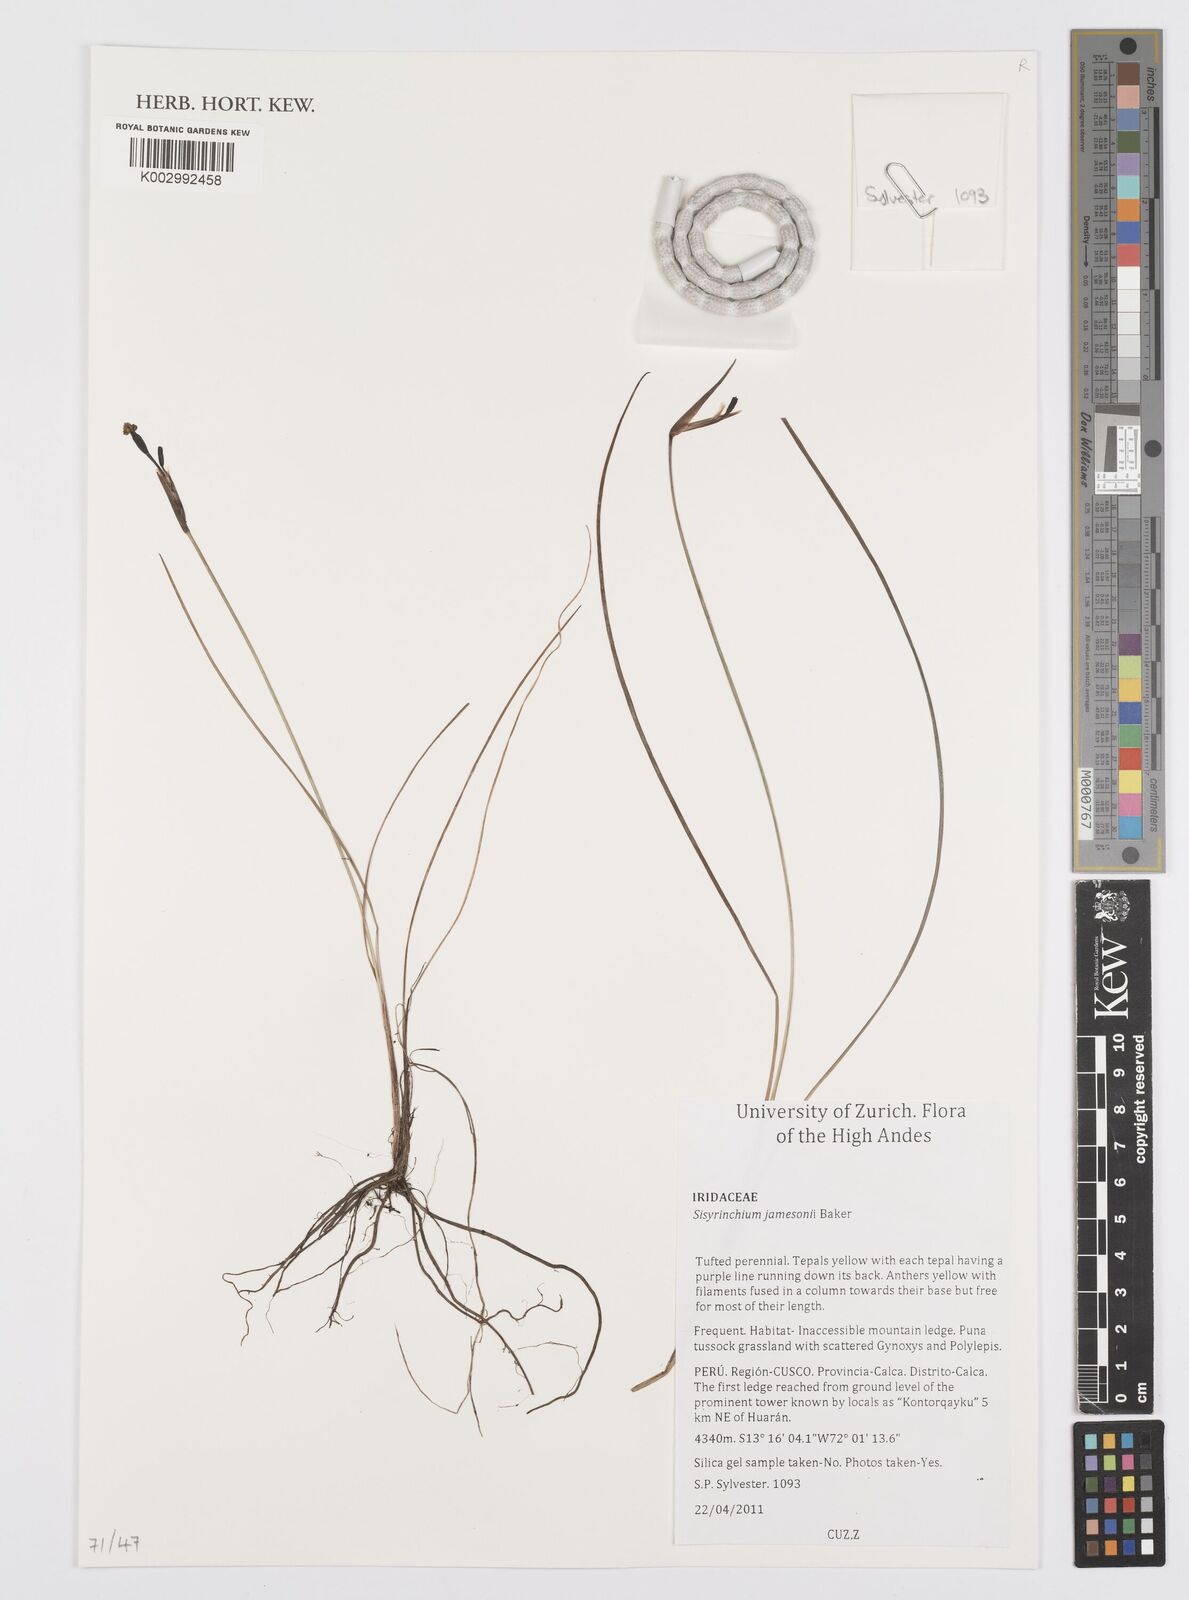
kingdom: Plantae
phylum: Tracheophyta
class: Liliopsida
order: Asparagales
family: Iridaceae
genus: Sisyrinchium
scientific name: Sisyrinchium jamesonii
